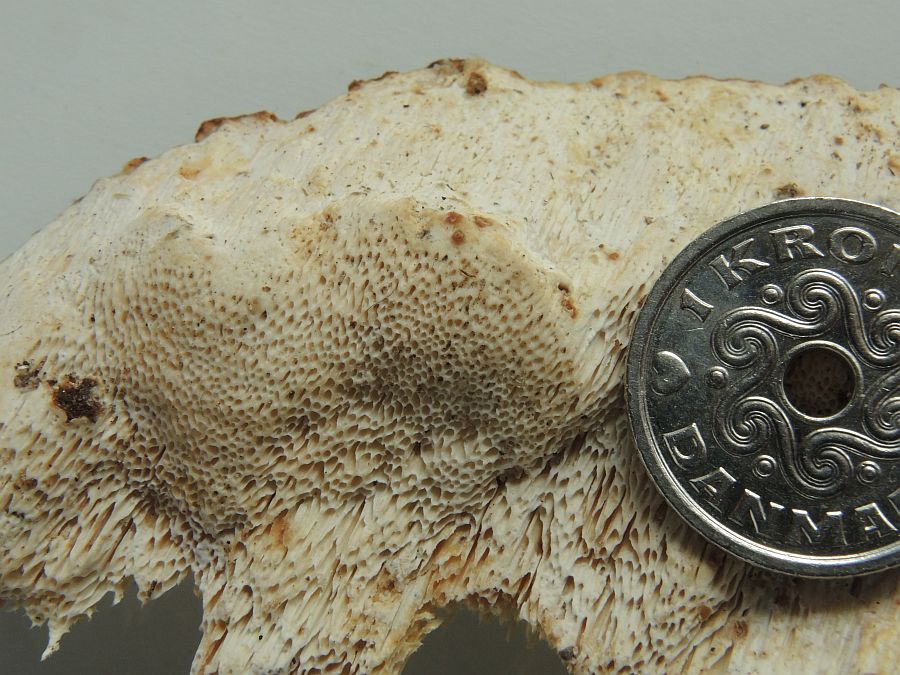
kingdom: Fungi
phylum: Basidiomycota
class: Agaricomycetes
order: Russulales
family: Bondarzewiaceae
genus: Heterobasidion
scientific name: Heterobasidion annosum
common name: almindelig rodfordærver
